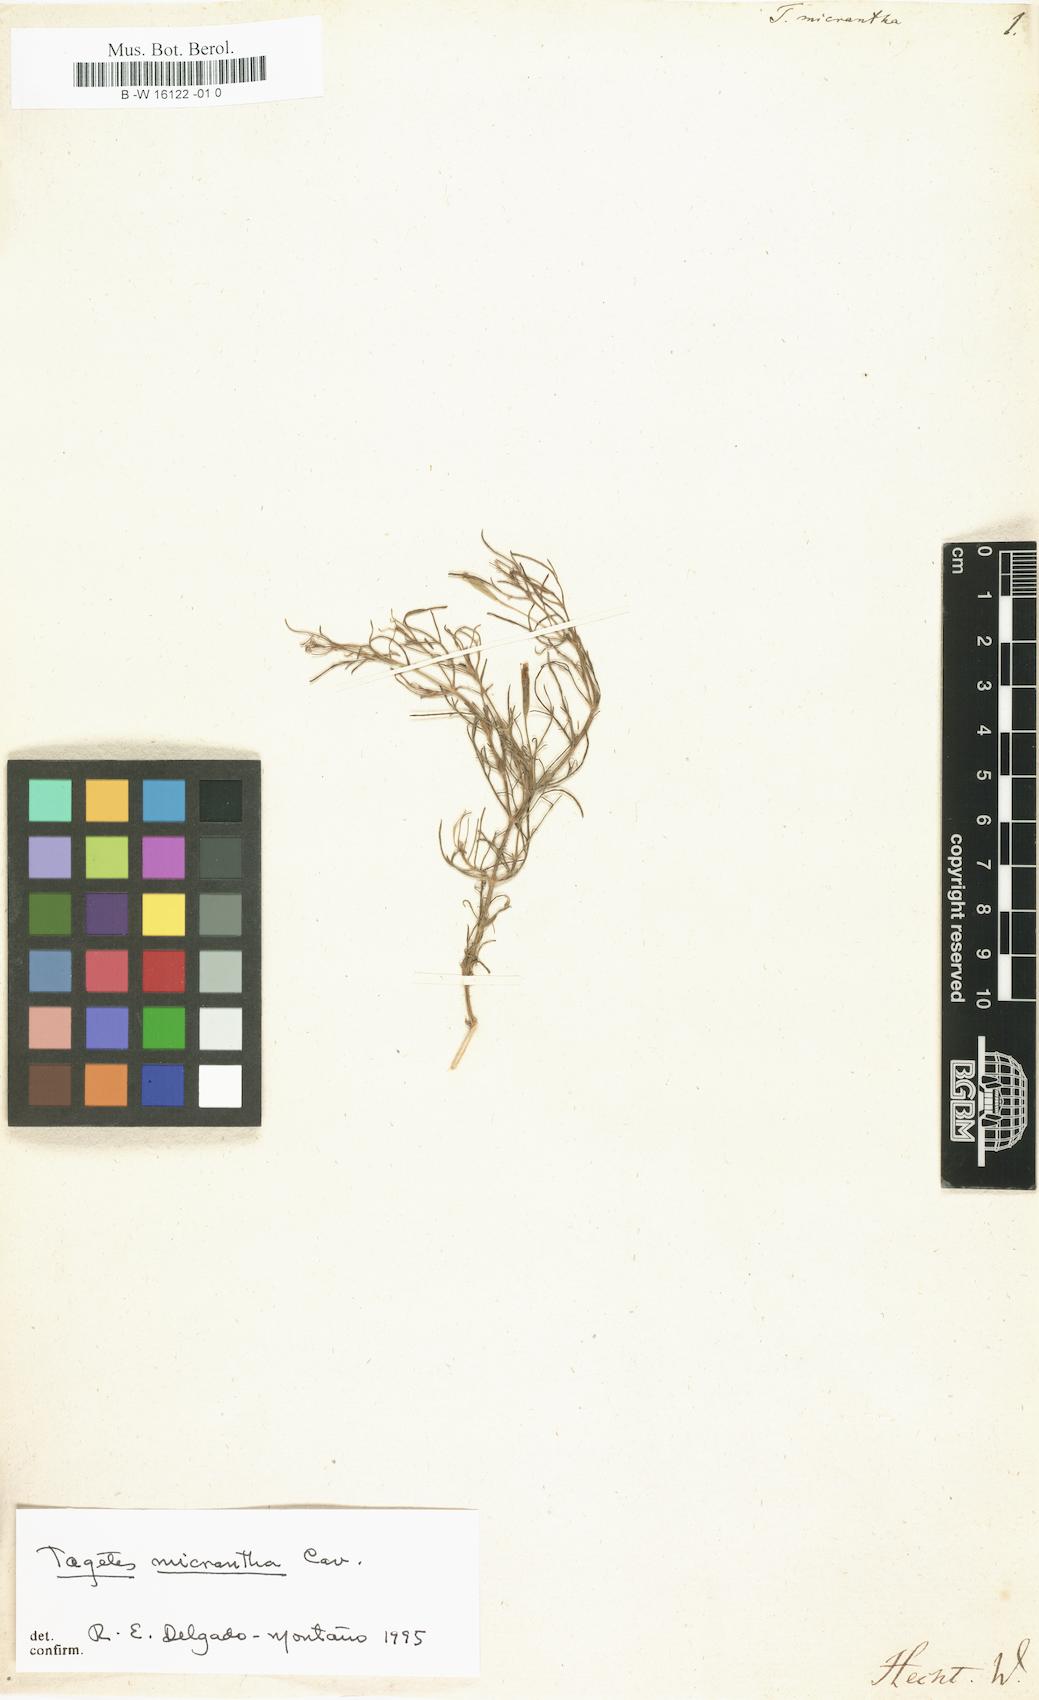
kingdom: Plantae
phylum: Tracheophyta
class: Magnoliopsida
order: Asterales
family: Asteraceae
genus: Tagetes
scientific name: Tagetes micrantha
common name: Licorice marigold
